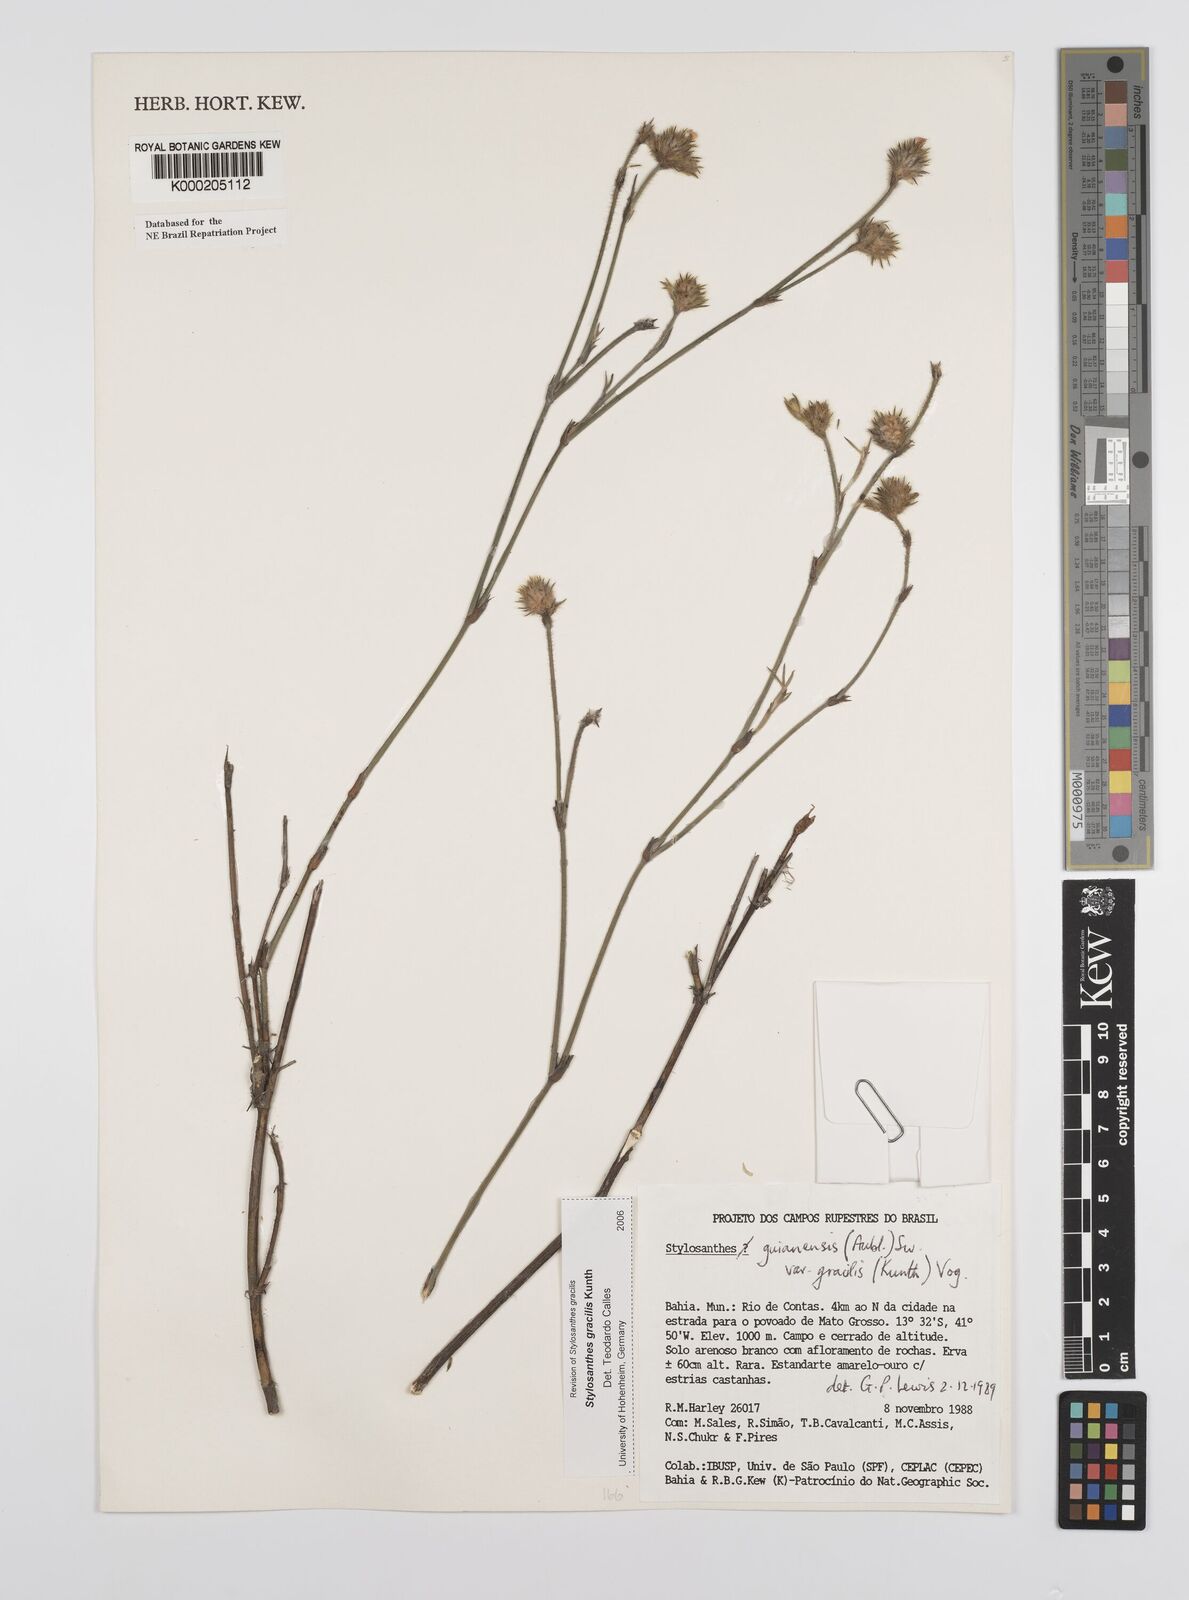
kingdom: Plantae
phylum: Tracheophyta
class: Magnoliopsida
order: Fabales
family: Fabaceae
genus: Stylosanthes
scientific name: Stylosanthes guianensis
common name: Pencil flower
